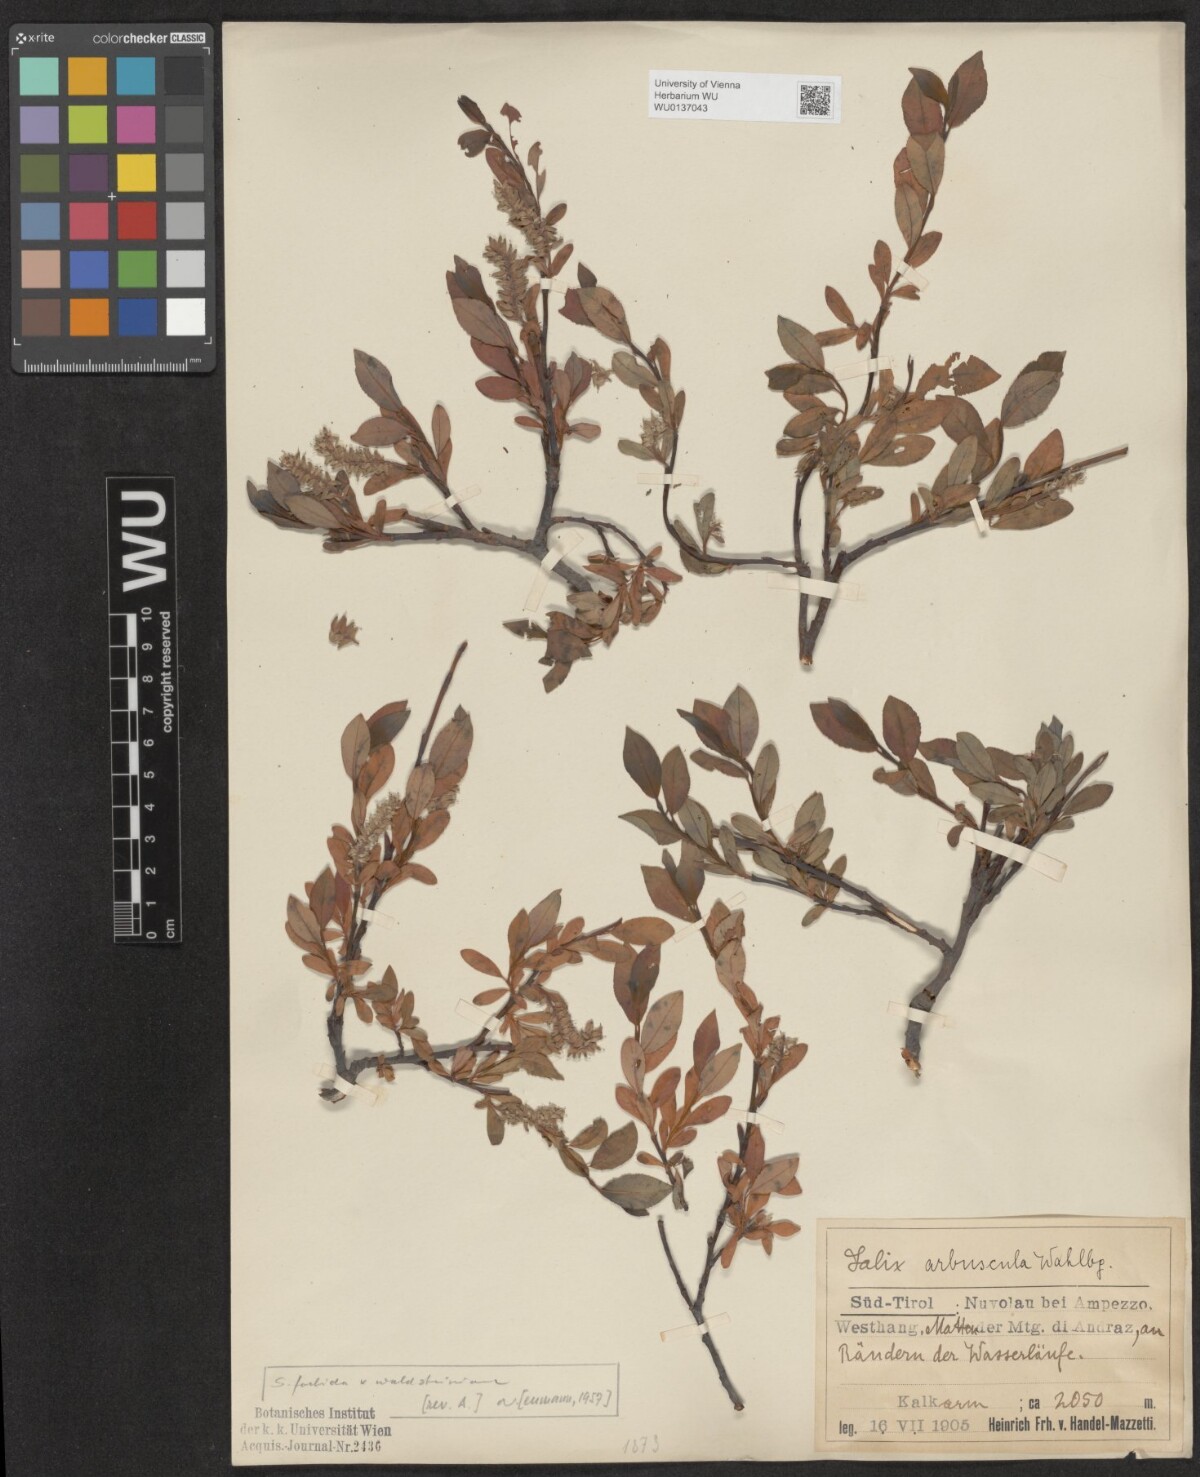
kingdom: Plantae
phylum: Tracheophyta
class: Magnoliopsida
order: Malpighiales
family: Salicaceae
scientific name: Salicaceae
